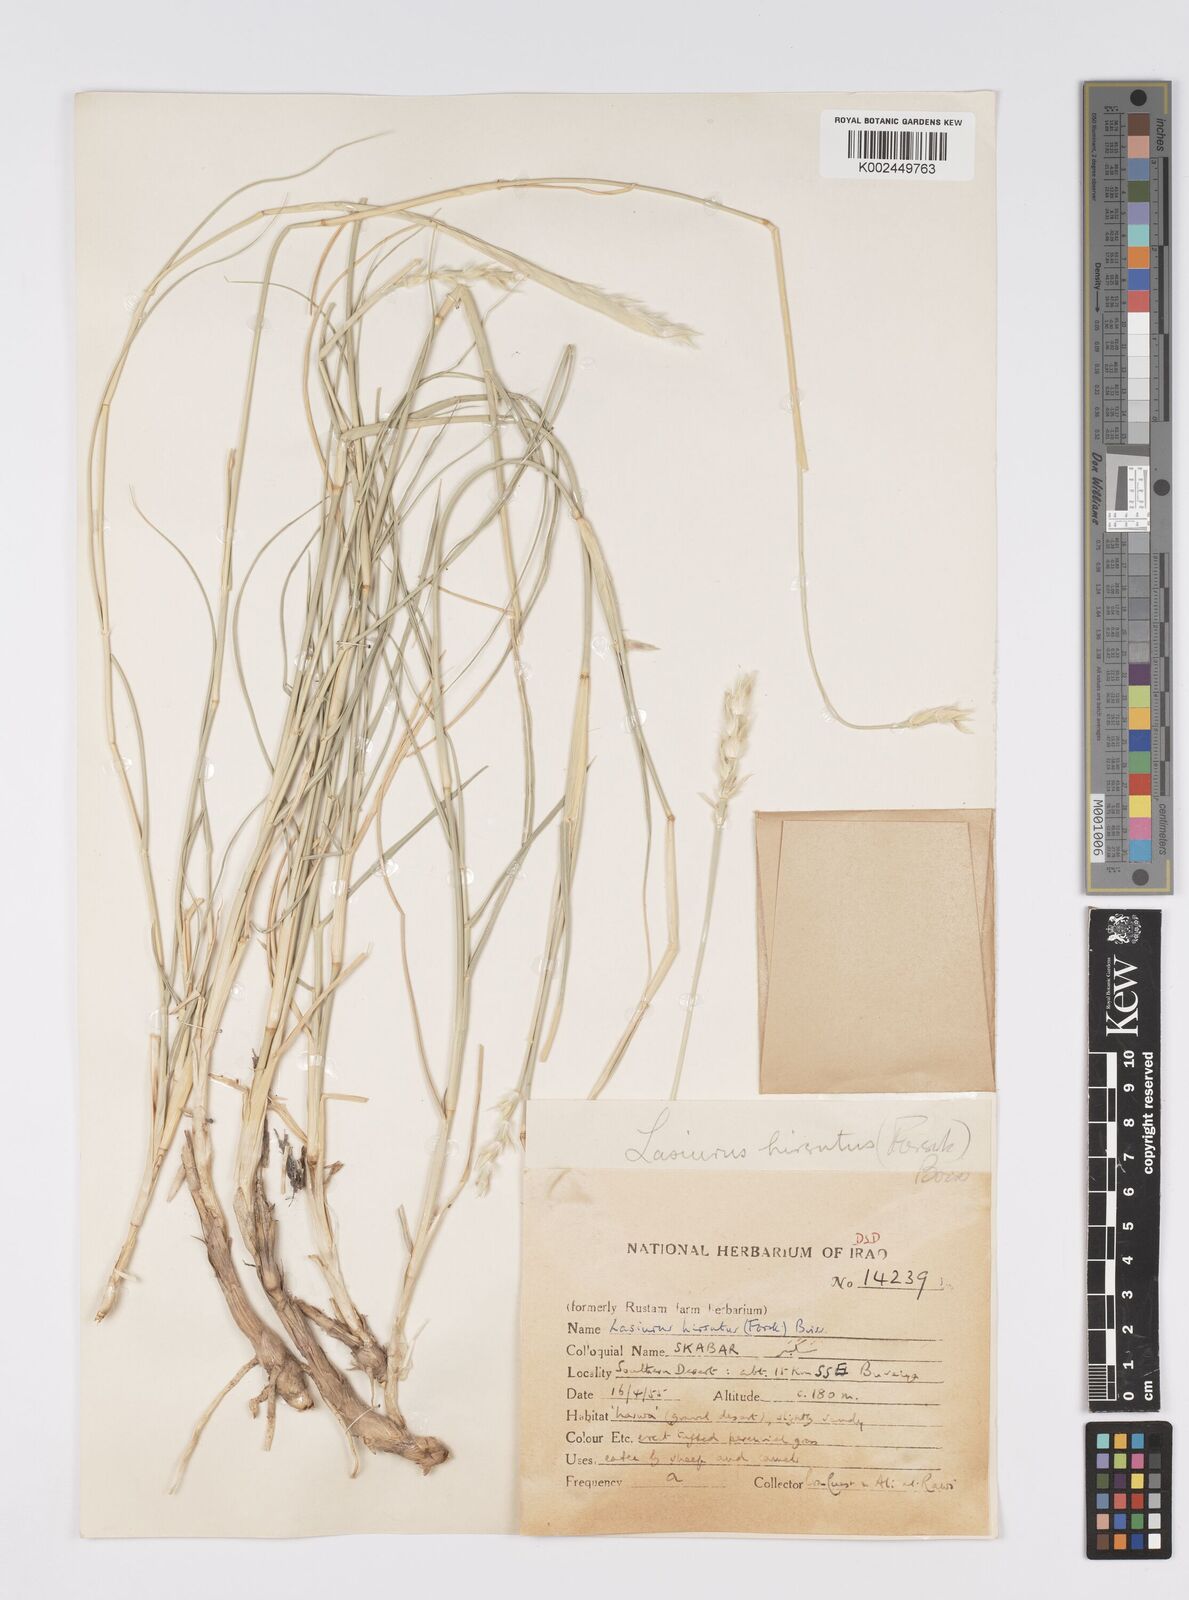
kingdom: Plantae
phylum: Tracheophyta
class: Liliopsida
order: Poales
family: Poaceae
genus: Lasiurus
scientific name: Lasiurus scindicus
